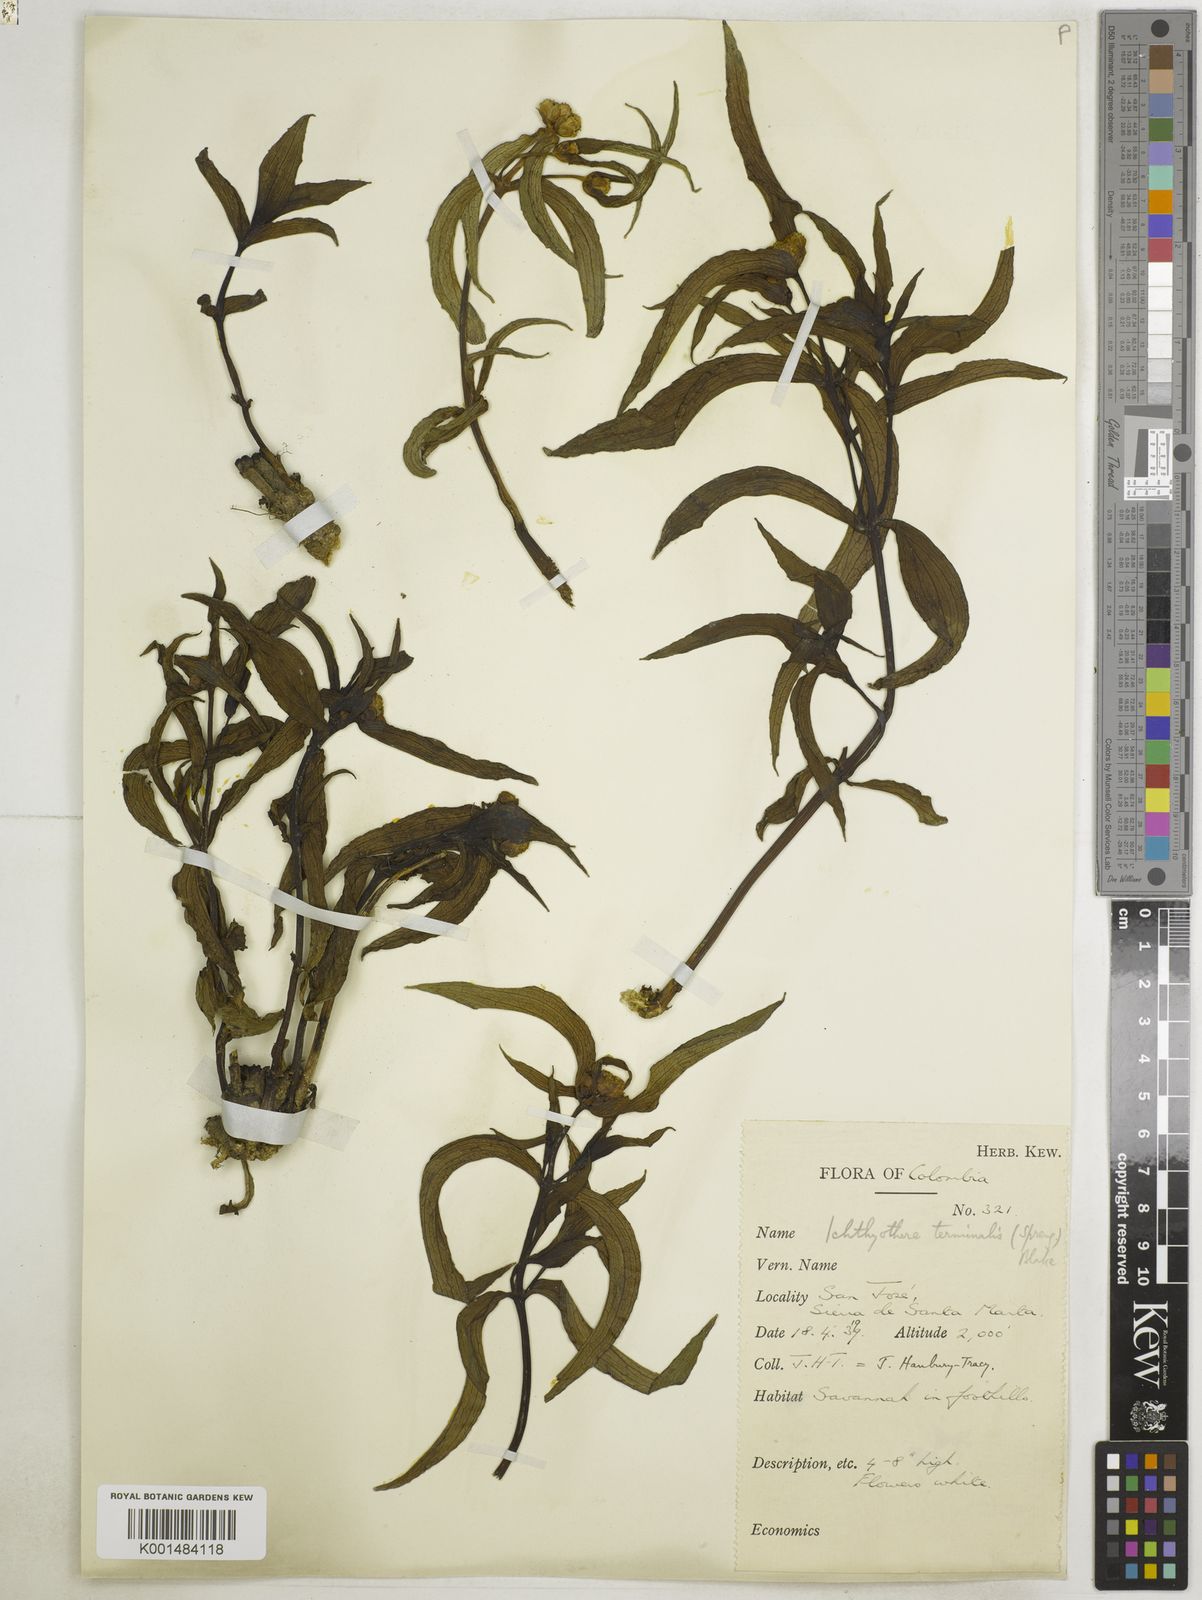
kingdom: Plantae
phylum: Tracheophyta
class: Magnoliopsida
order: Asterales
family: Asteraceae
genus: Ichthyothere
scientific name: Ichthyothere terminalis
